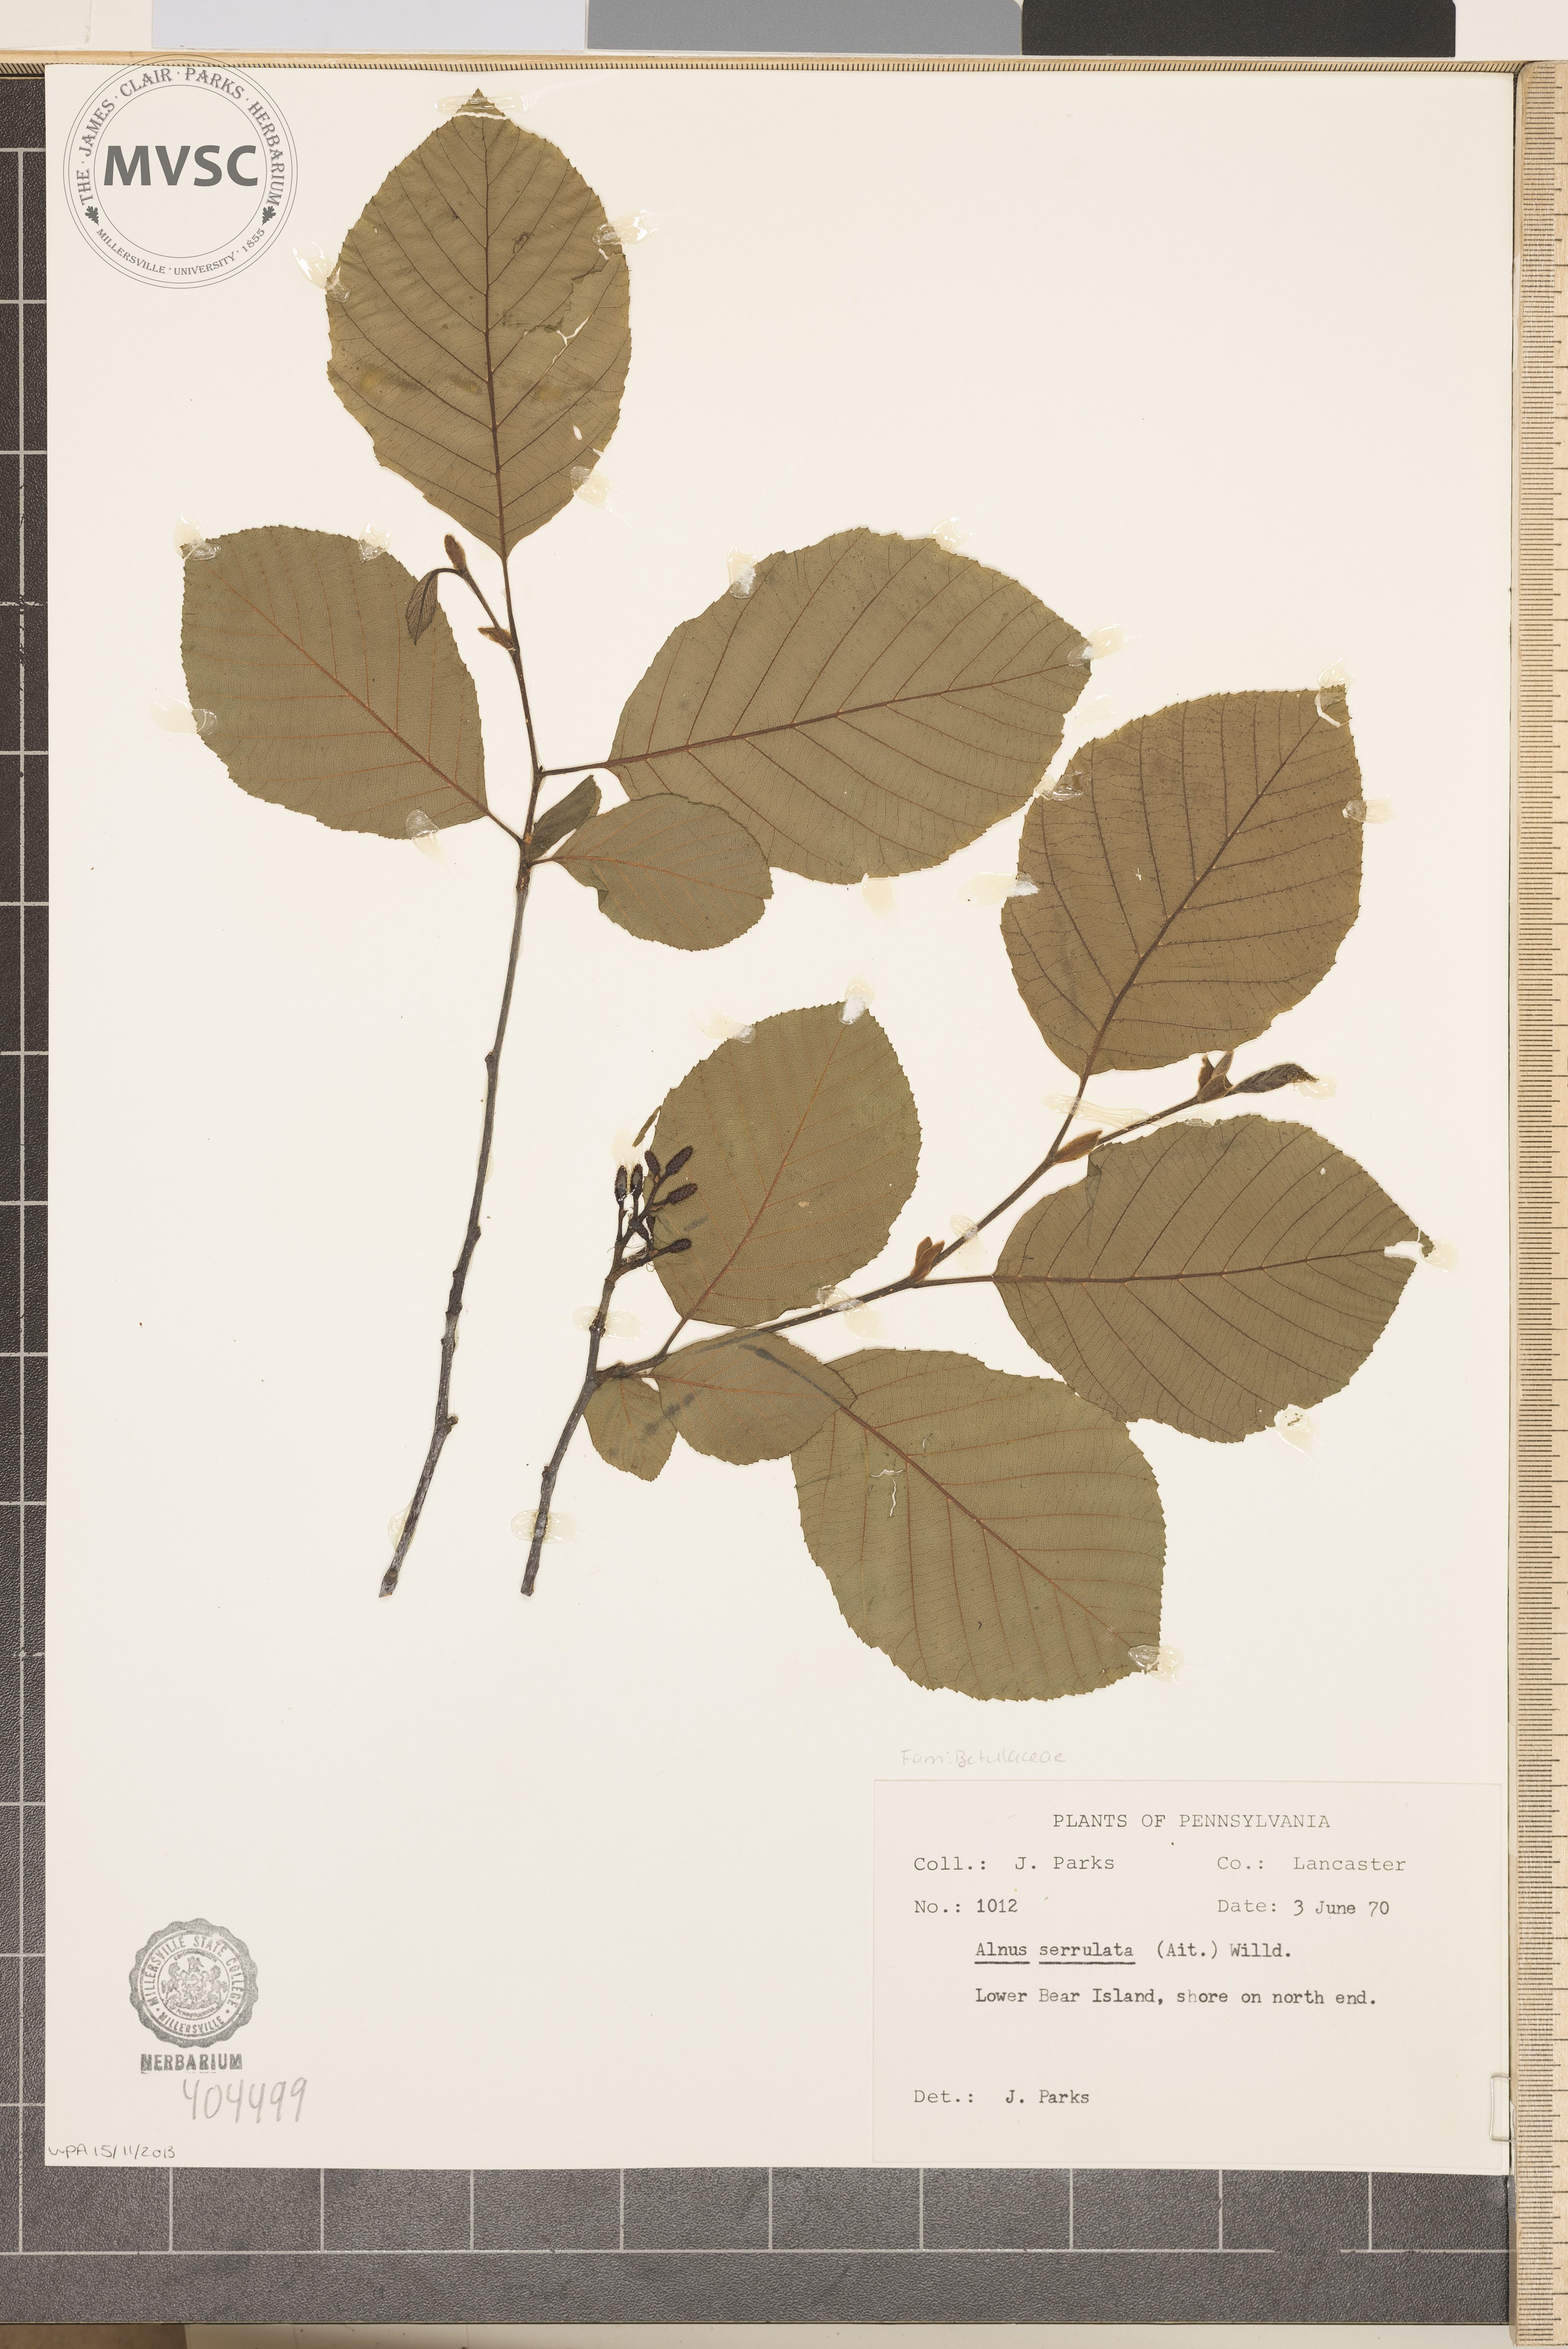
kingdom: Plantae
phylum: Tracheophyta
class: Magnoliopsida
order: Fagales
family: Betulaceae
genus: Alnus
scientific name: Alnus serrulata
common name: Hazel alder
